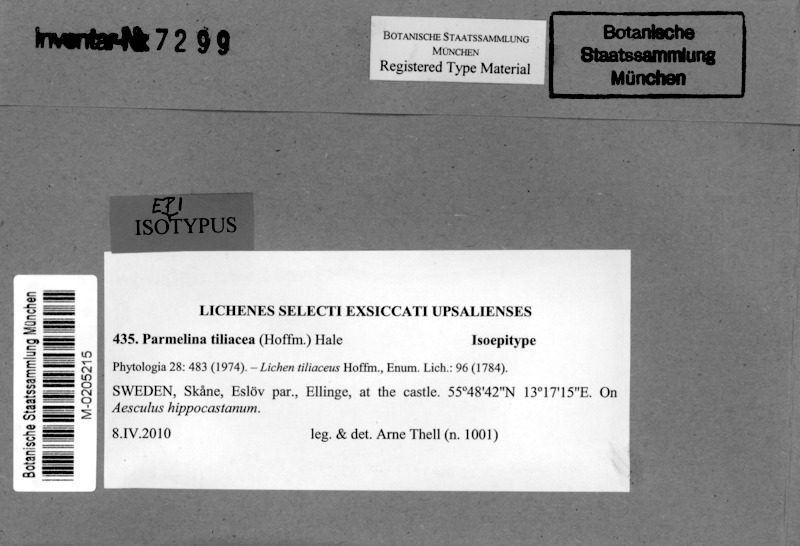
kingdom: Fungi
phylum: Ascomycota
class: Lecanoromycetes
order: Lecanorales
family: Parmeliaceae
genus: Parmelina
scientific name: Parmelina tiliacea
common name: Linden shield lichen
